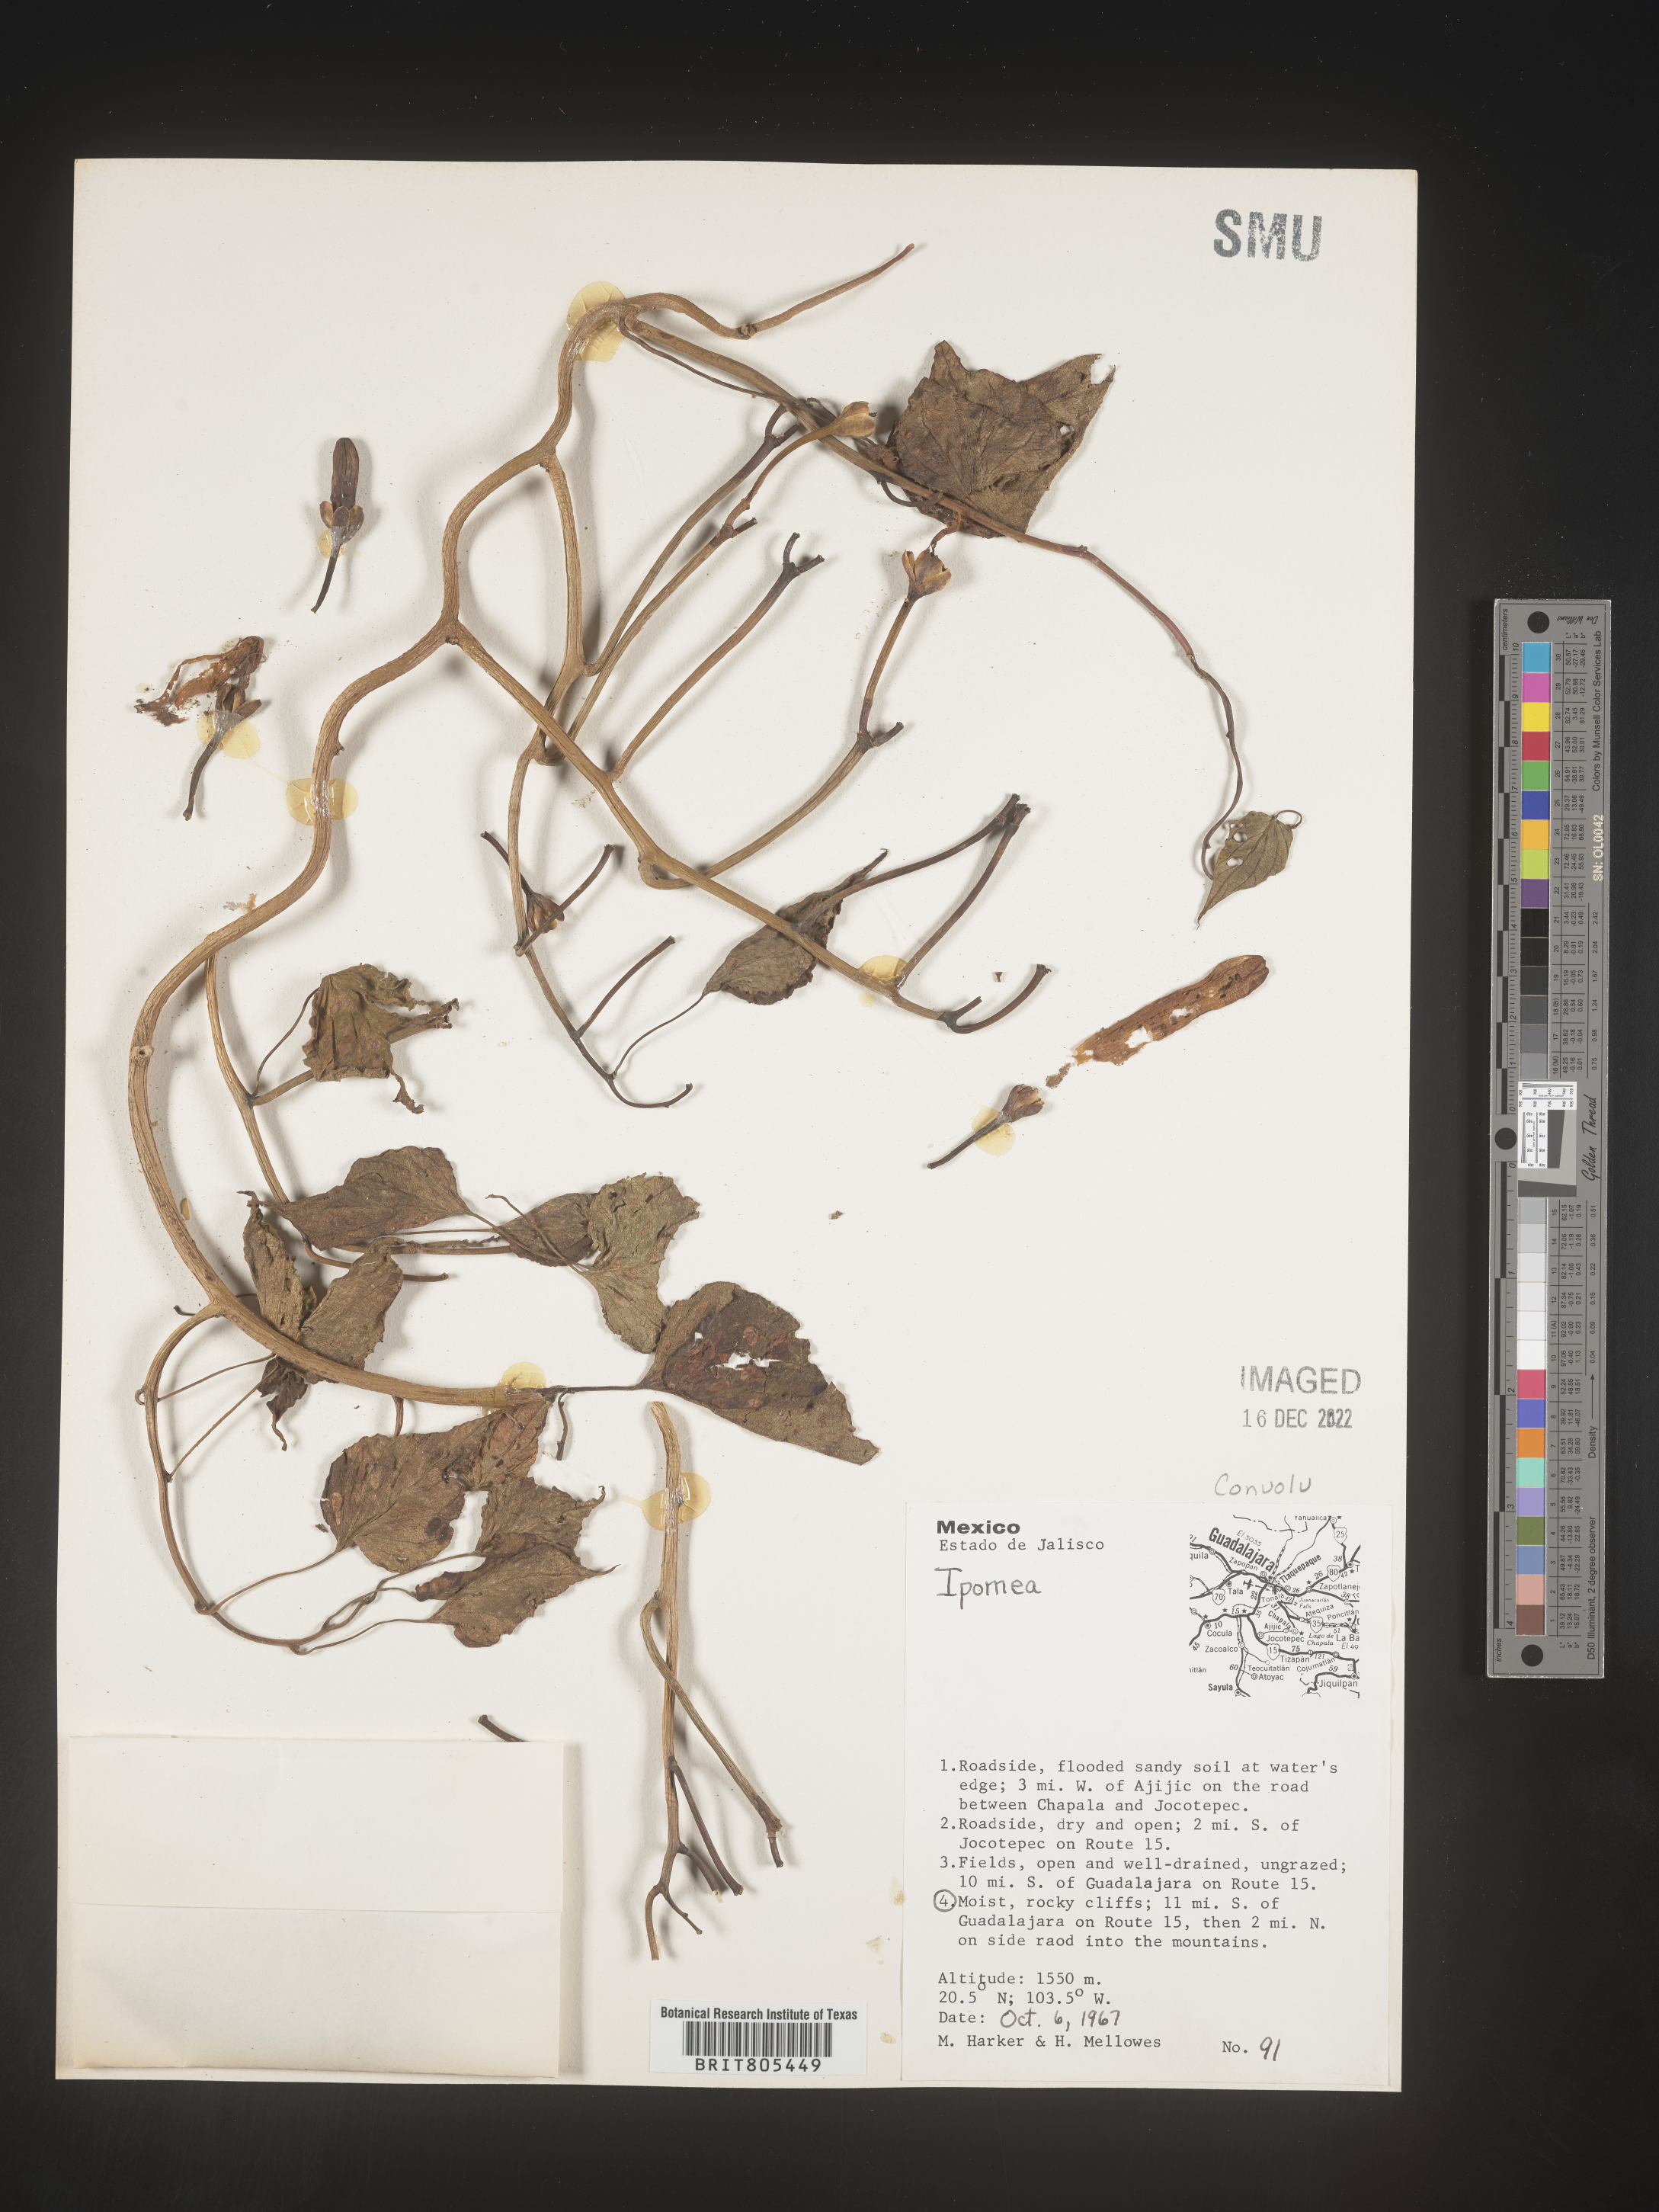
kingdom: Plantae
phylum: Tracheophyta
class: Magnoliopsida
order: Solanales
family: Convolvulaceae
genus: Ipomoea
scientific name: Ipomoea
